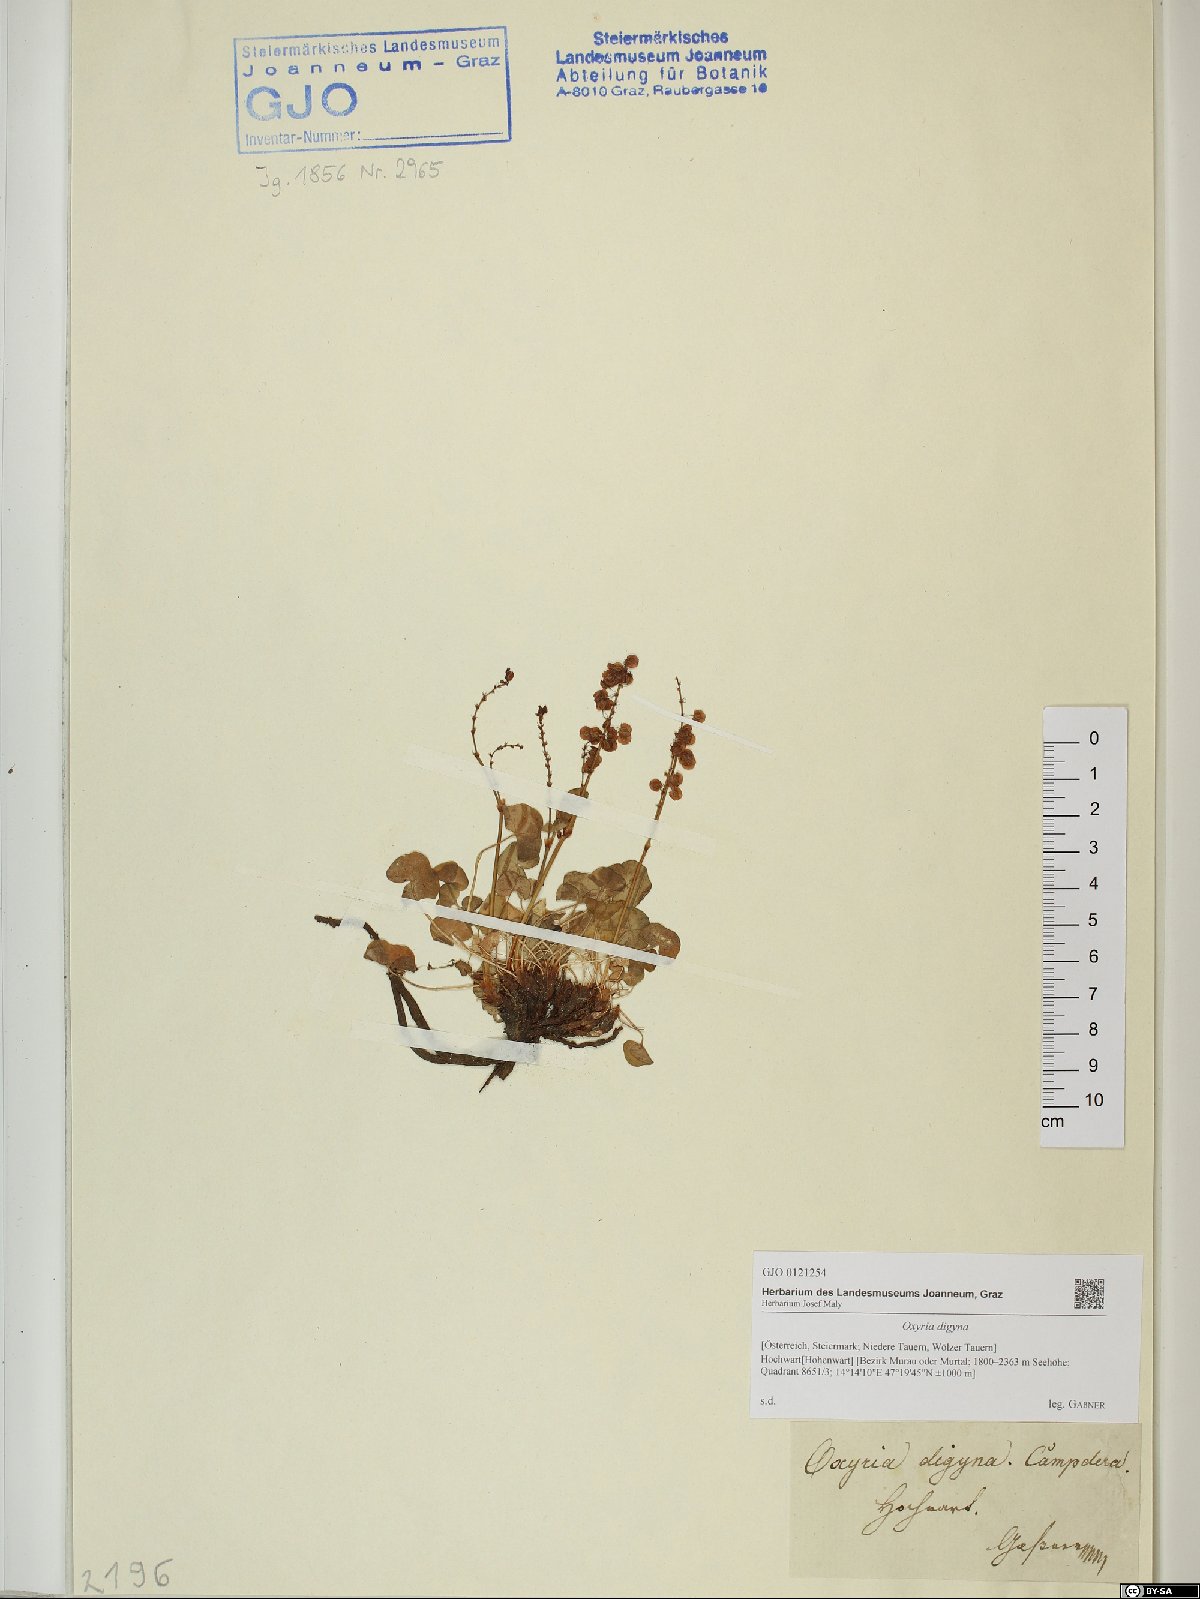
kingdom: Plantae
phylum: Tracheophyta
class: Magnoliopsida
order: Caryophyllales
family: Polygonaceae
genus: Oxyria
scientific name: Oxyria digyna
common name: Alpine mountain-sorrel
